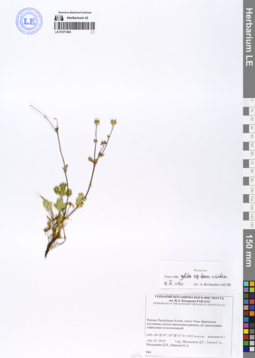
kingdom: Plantae
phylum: Tracheophyta
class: Magnoliopsida
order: Rosales
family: Rosaceae
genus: Potentilla
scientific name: Potentilla crantzii
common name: Alpine cinquefoil
